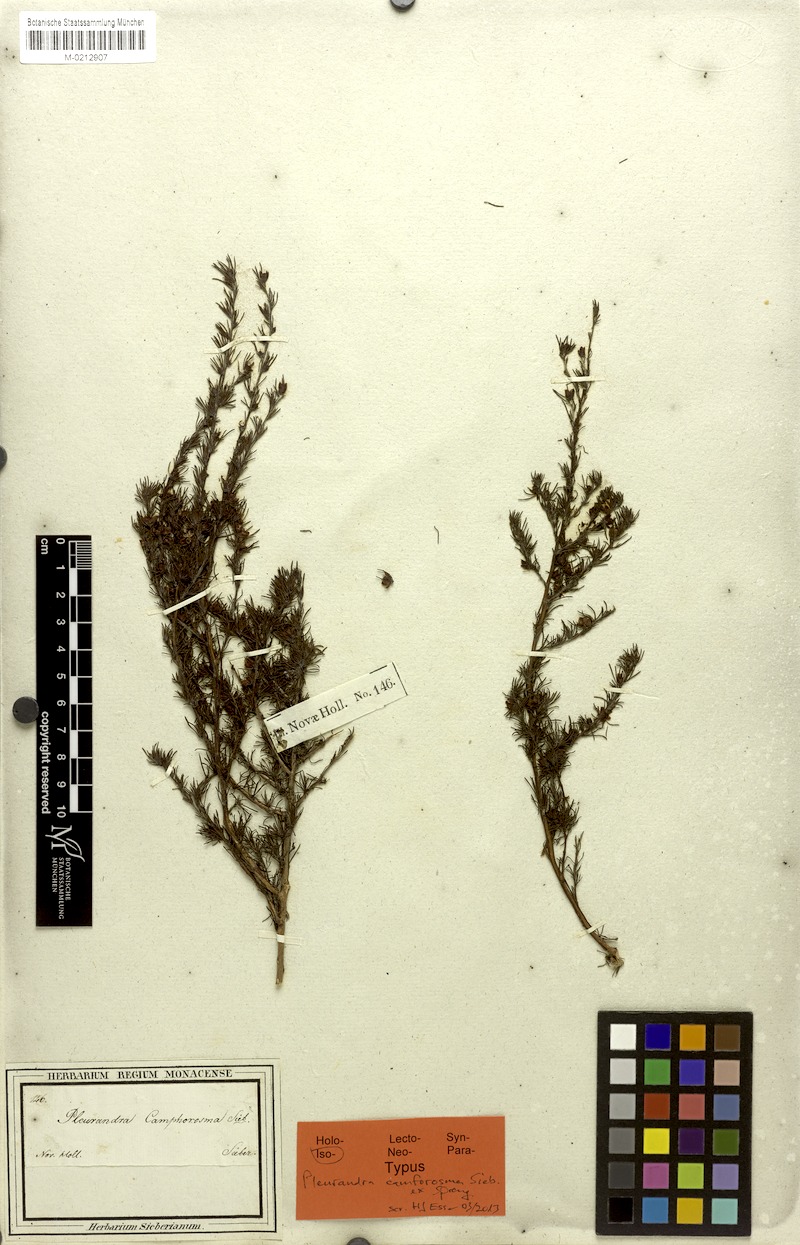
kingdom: Plantae
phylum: Tracheophyta
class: Magnoliopsida
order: Dilleniales
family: Dilleniaceae
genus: Hibbertia
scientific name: Hibbertia fasciculata
